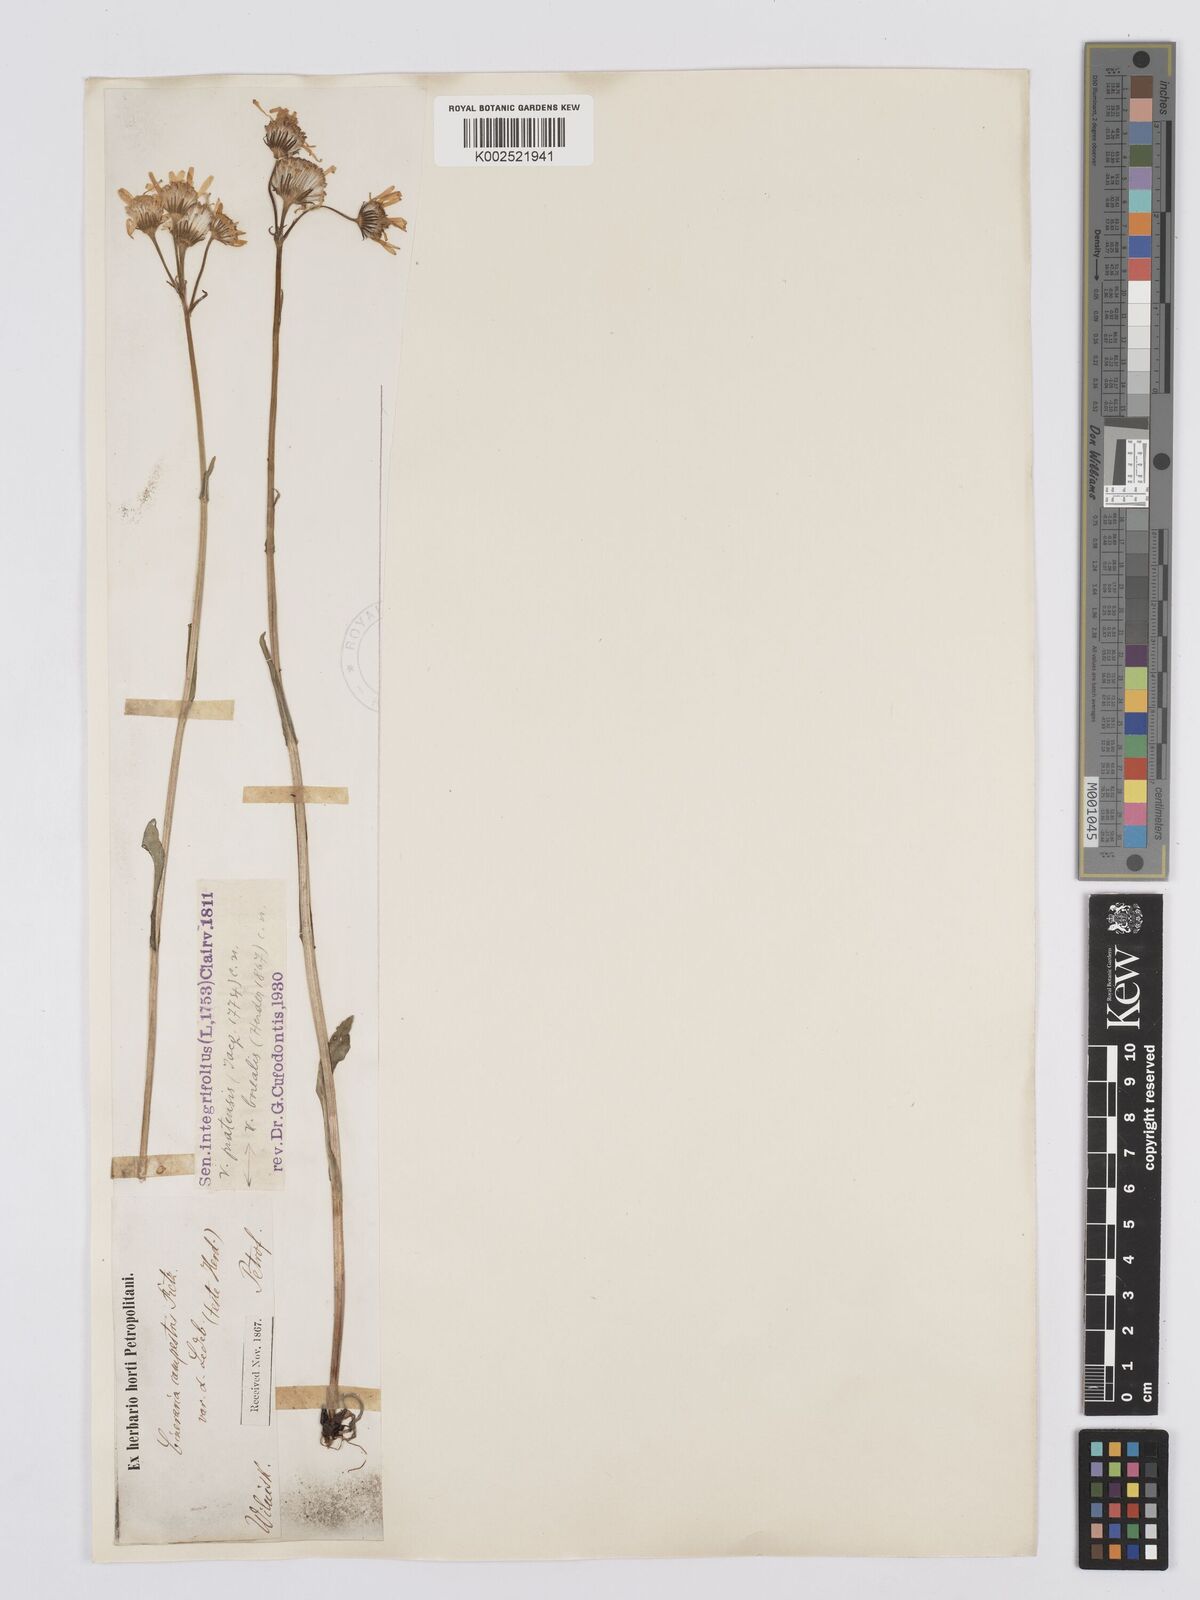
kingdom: Plantae
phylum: Tracheophyta
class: Magnoliopsida
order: Asterales
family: Asteraceae
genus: Tephroseris
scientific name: Tephroseris integrifolia
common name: Field fleawort
